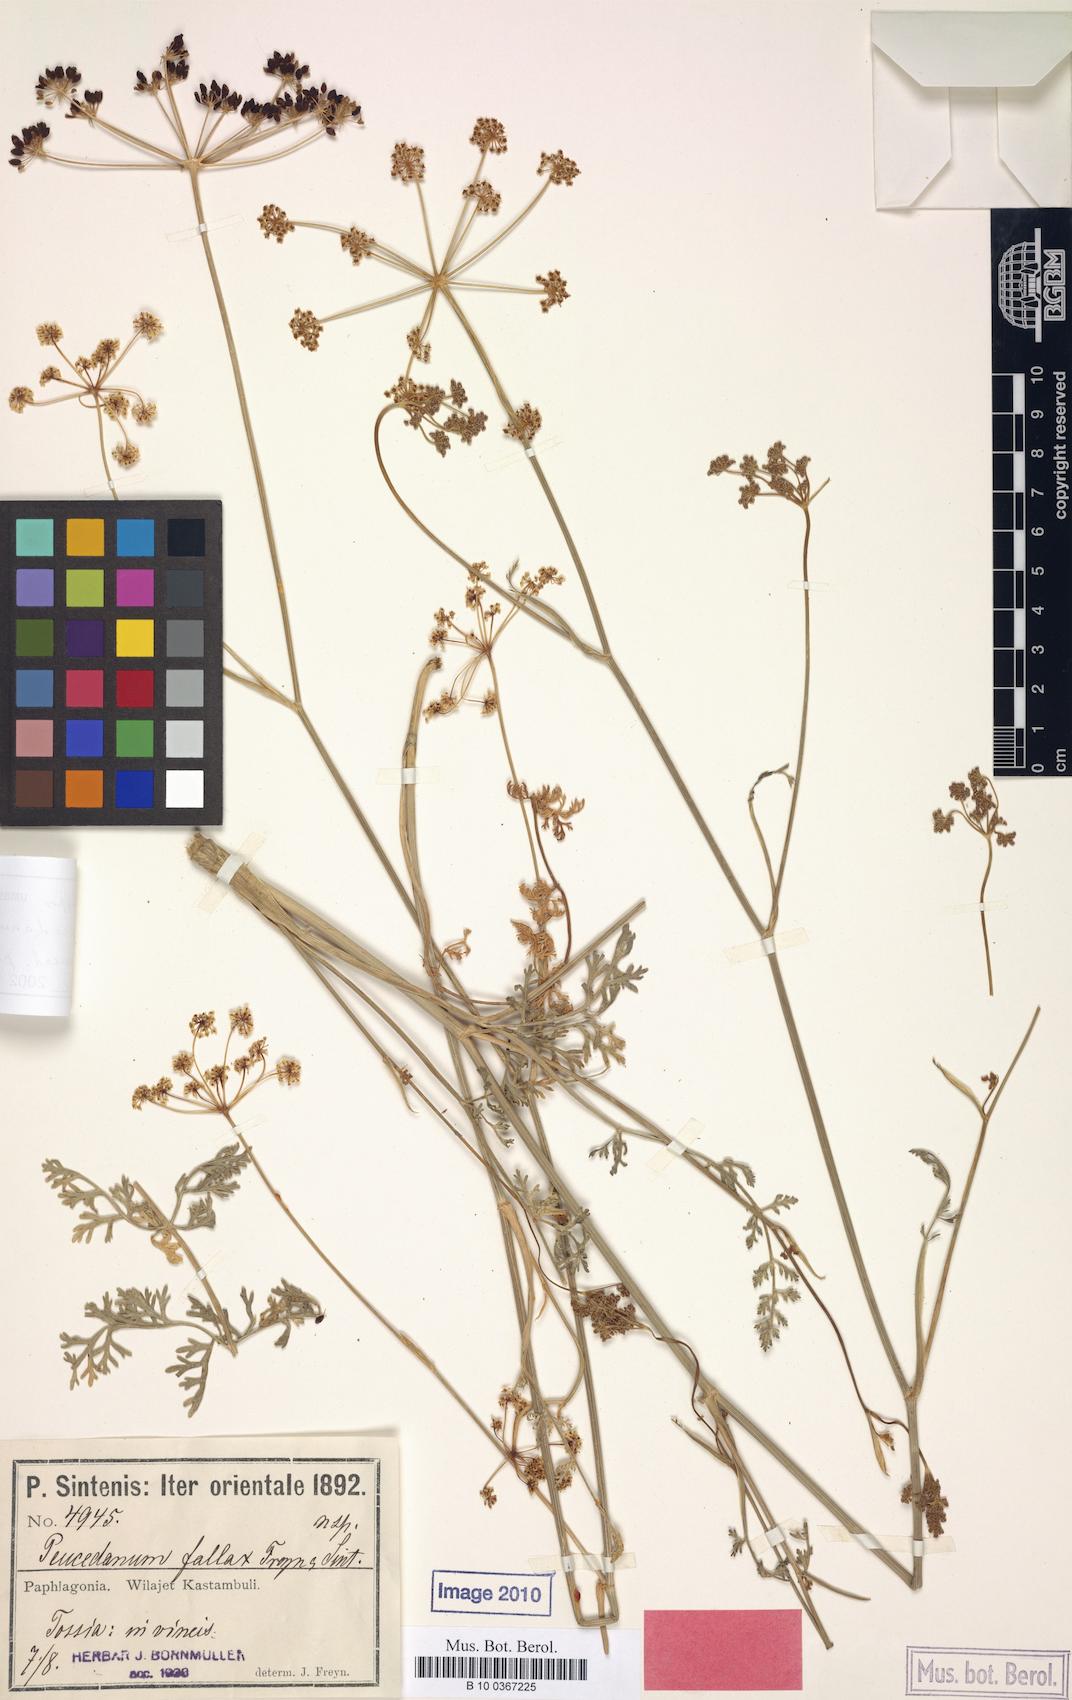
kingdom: Plantae
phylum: Tracheophyta
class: Magnoliopsida
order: Apiales
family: Apiaceae
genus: Dichoropetalum
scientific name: Dichoropetalum palimbioides
